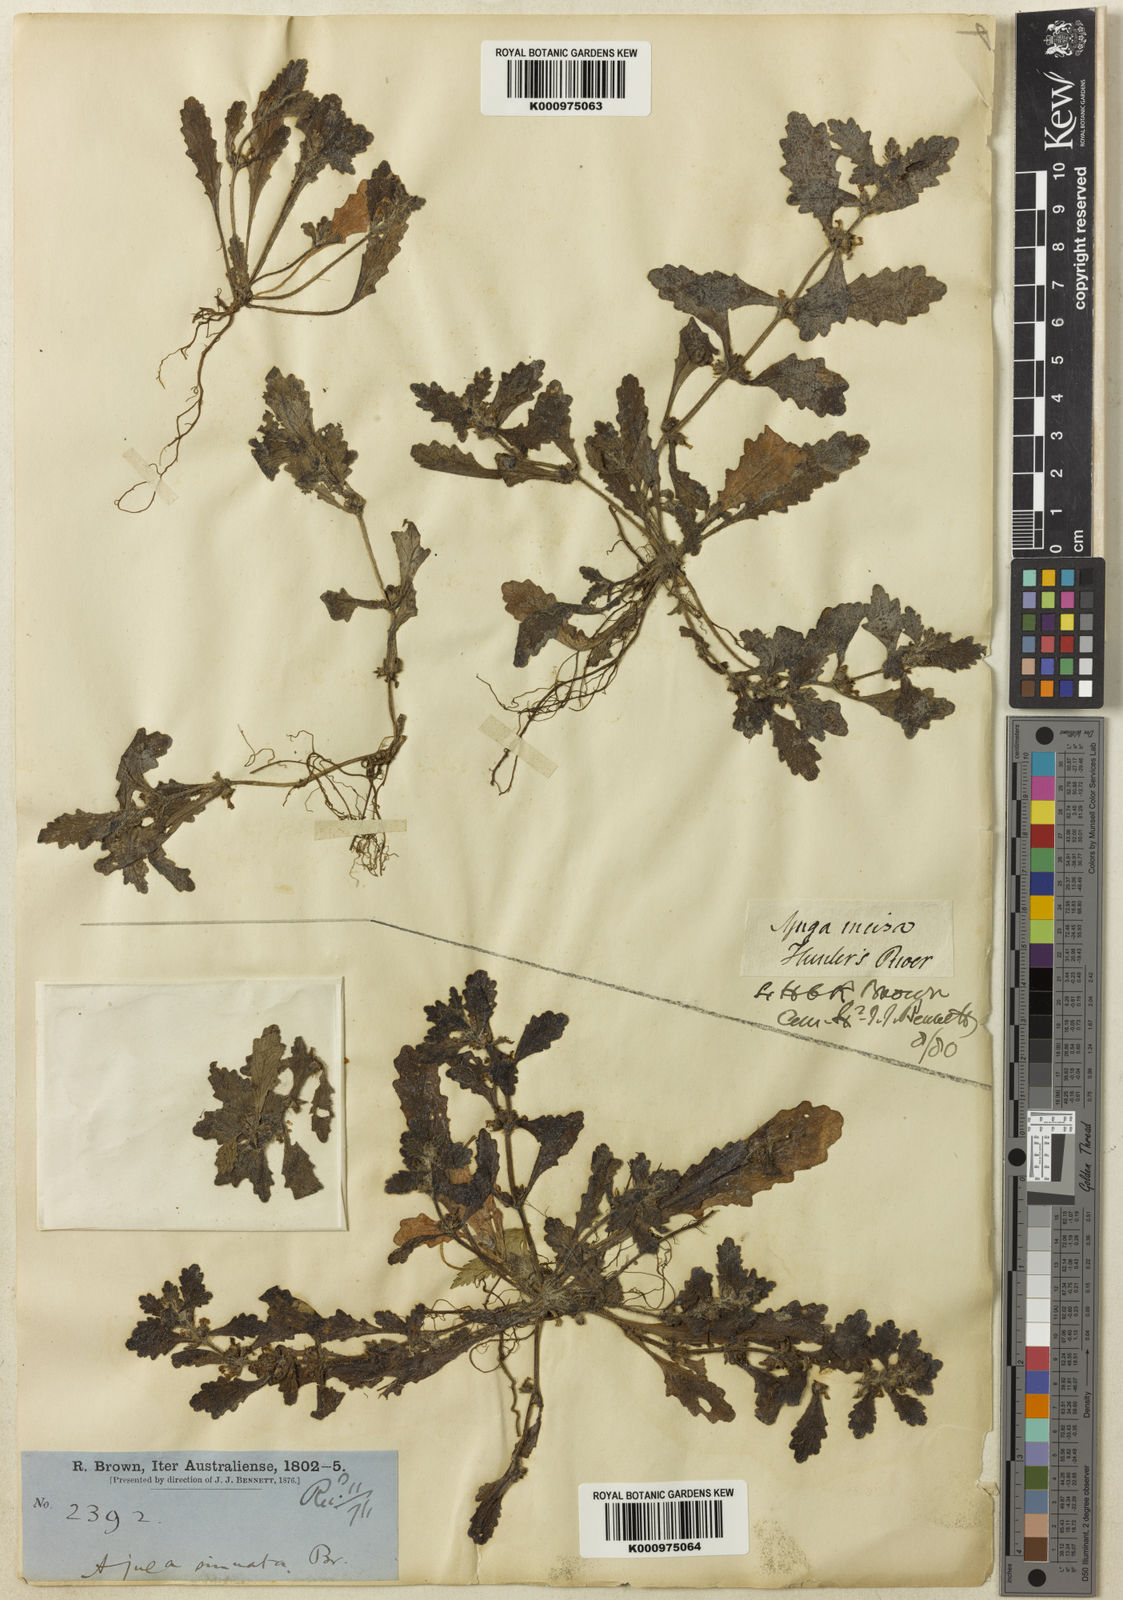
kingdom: Plantae
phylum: Tracheophyta
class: Magnoliopsida
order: Lamiales
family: Lamiaceae
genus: Ajuga
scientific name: Ajuga sinuata
